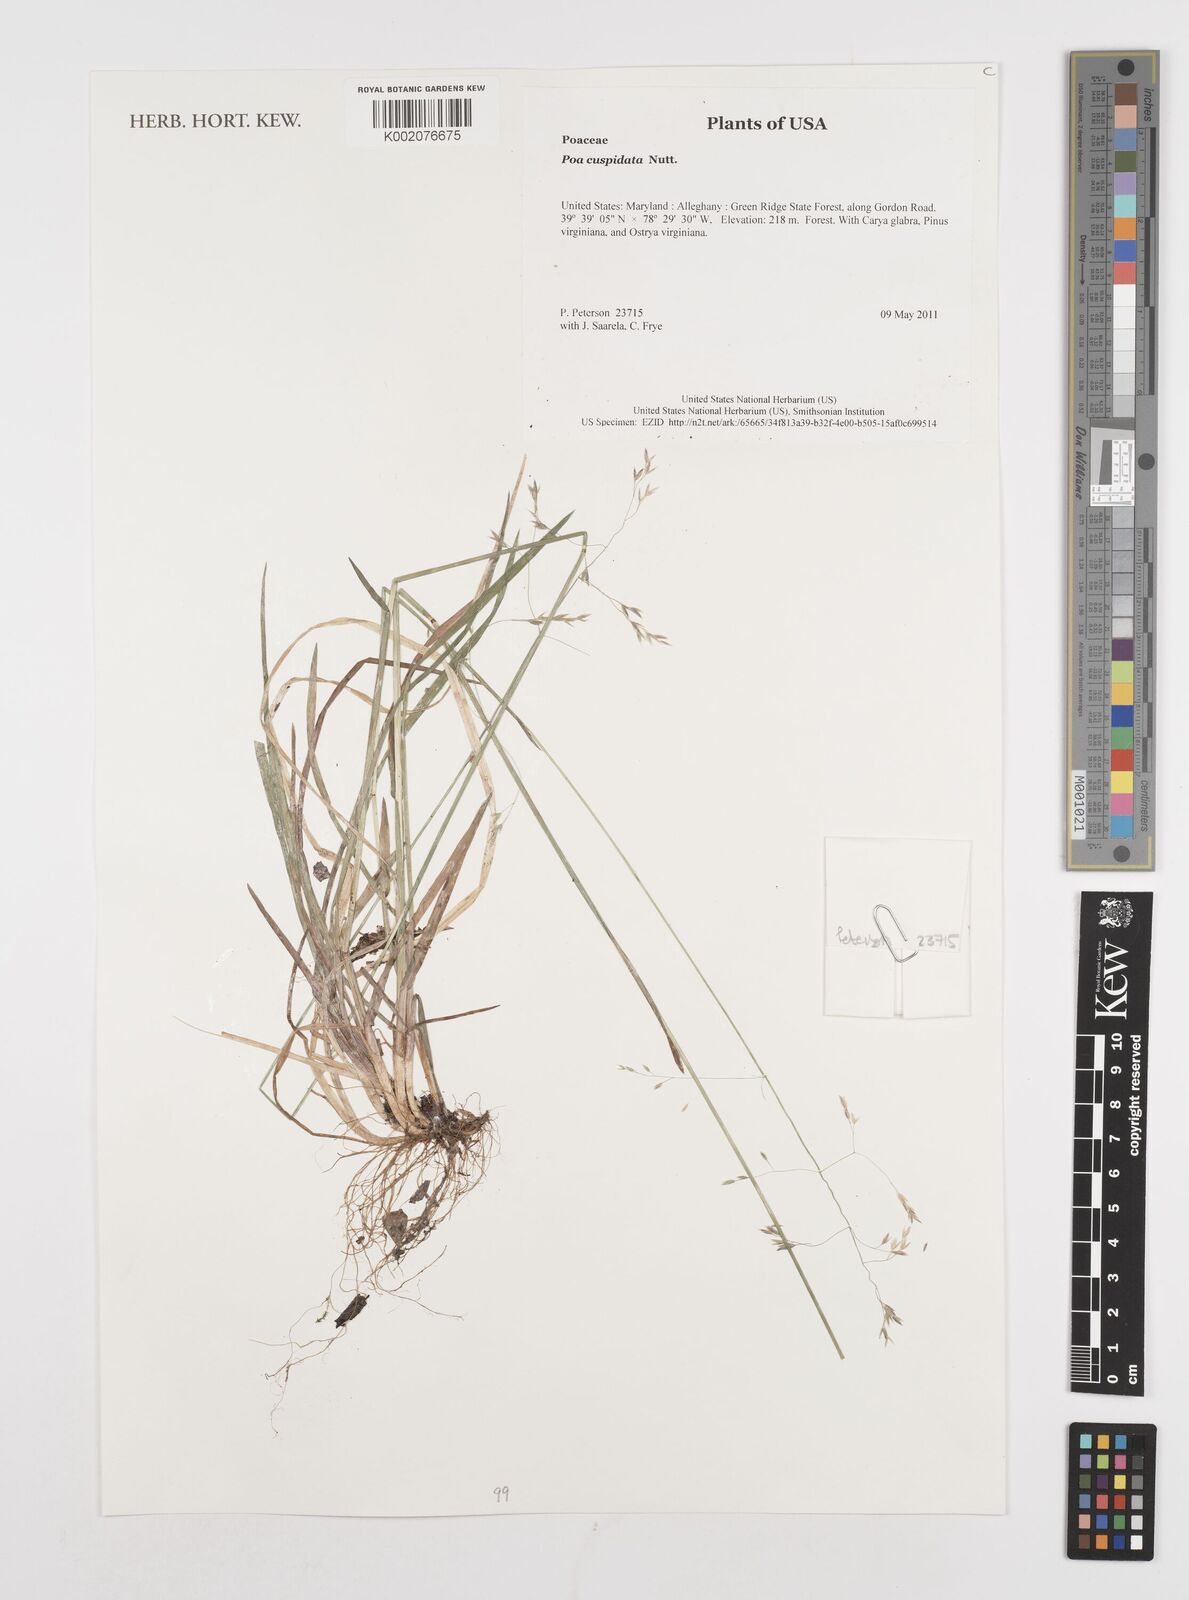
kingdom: Plantae
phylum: Tracheophyta
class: Liliopsida
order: Poales
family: Poaceae
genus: Poa
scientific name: Poa cuspidata
